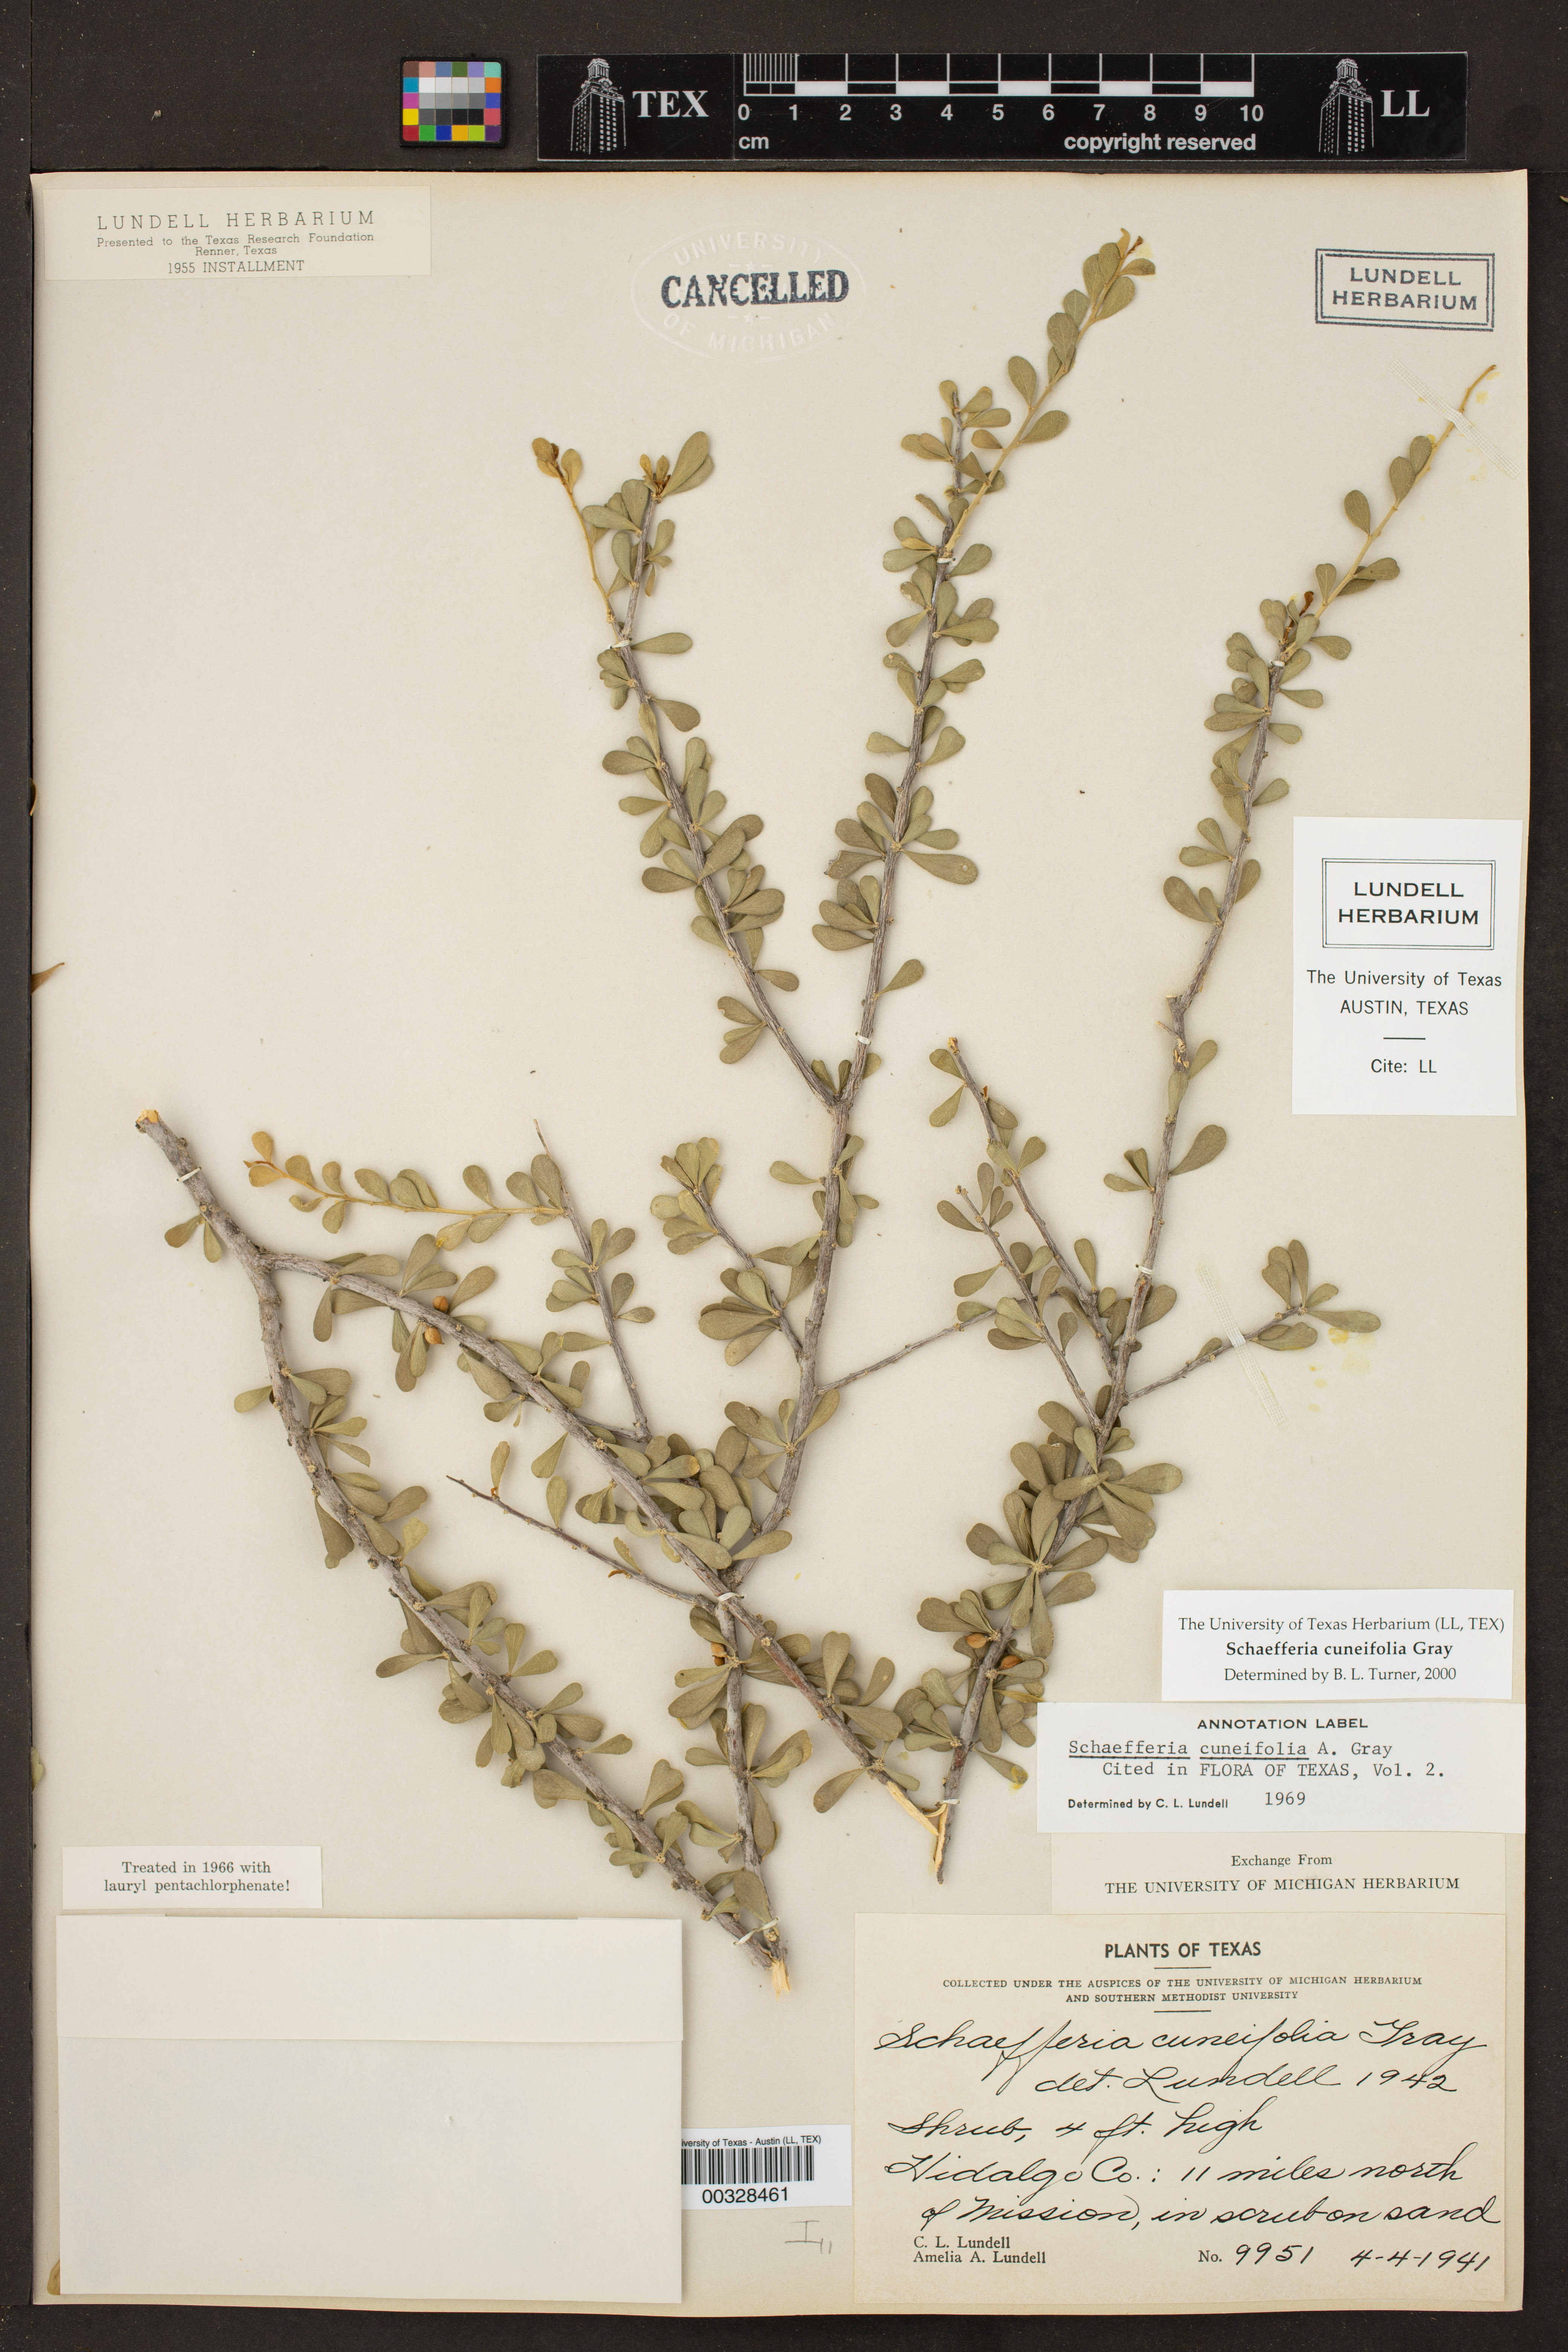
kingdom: Plantae
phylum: Tracheophyta
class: Magnoliopsida
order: Celastrales
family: Celastraceae
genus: Schaefferia
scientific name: Schaefferia cuneifolia
